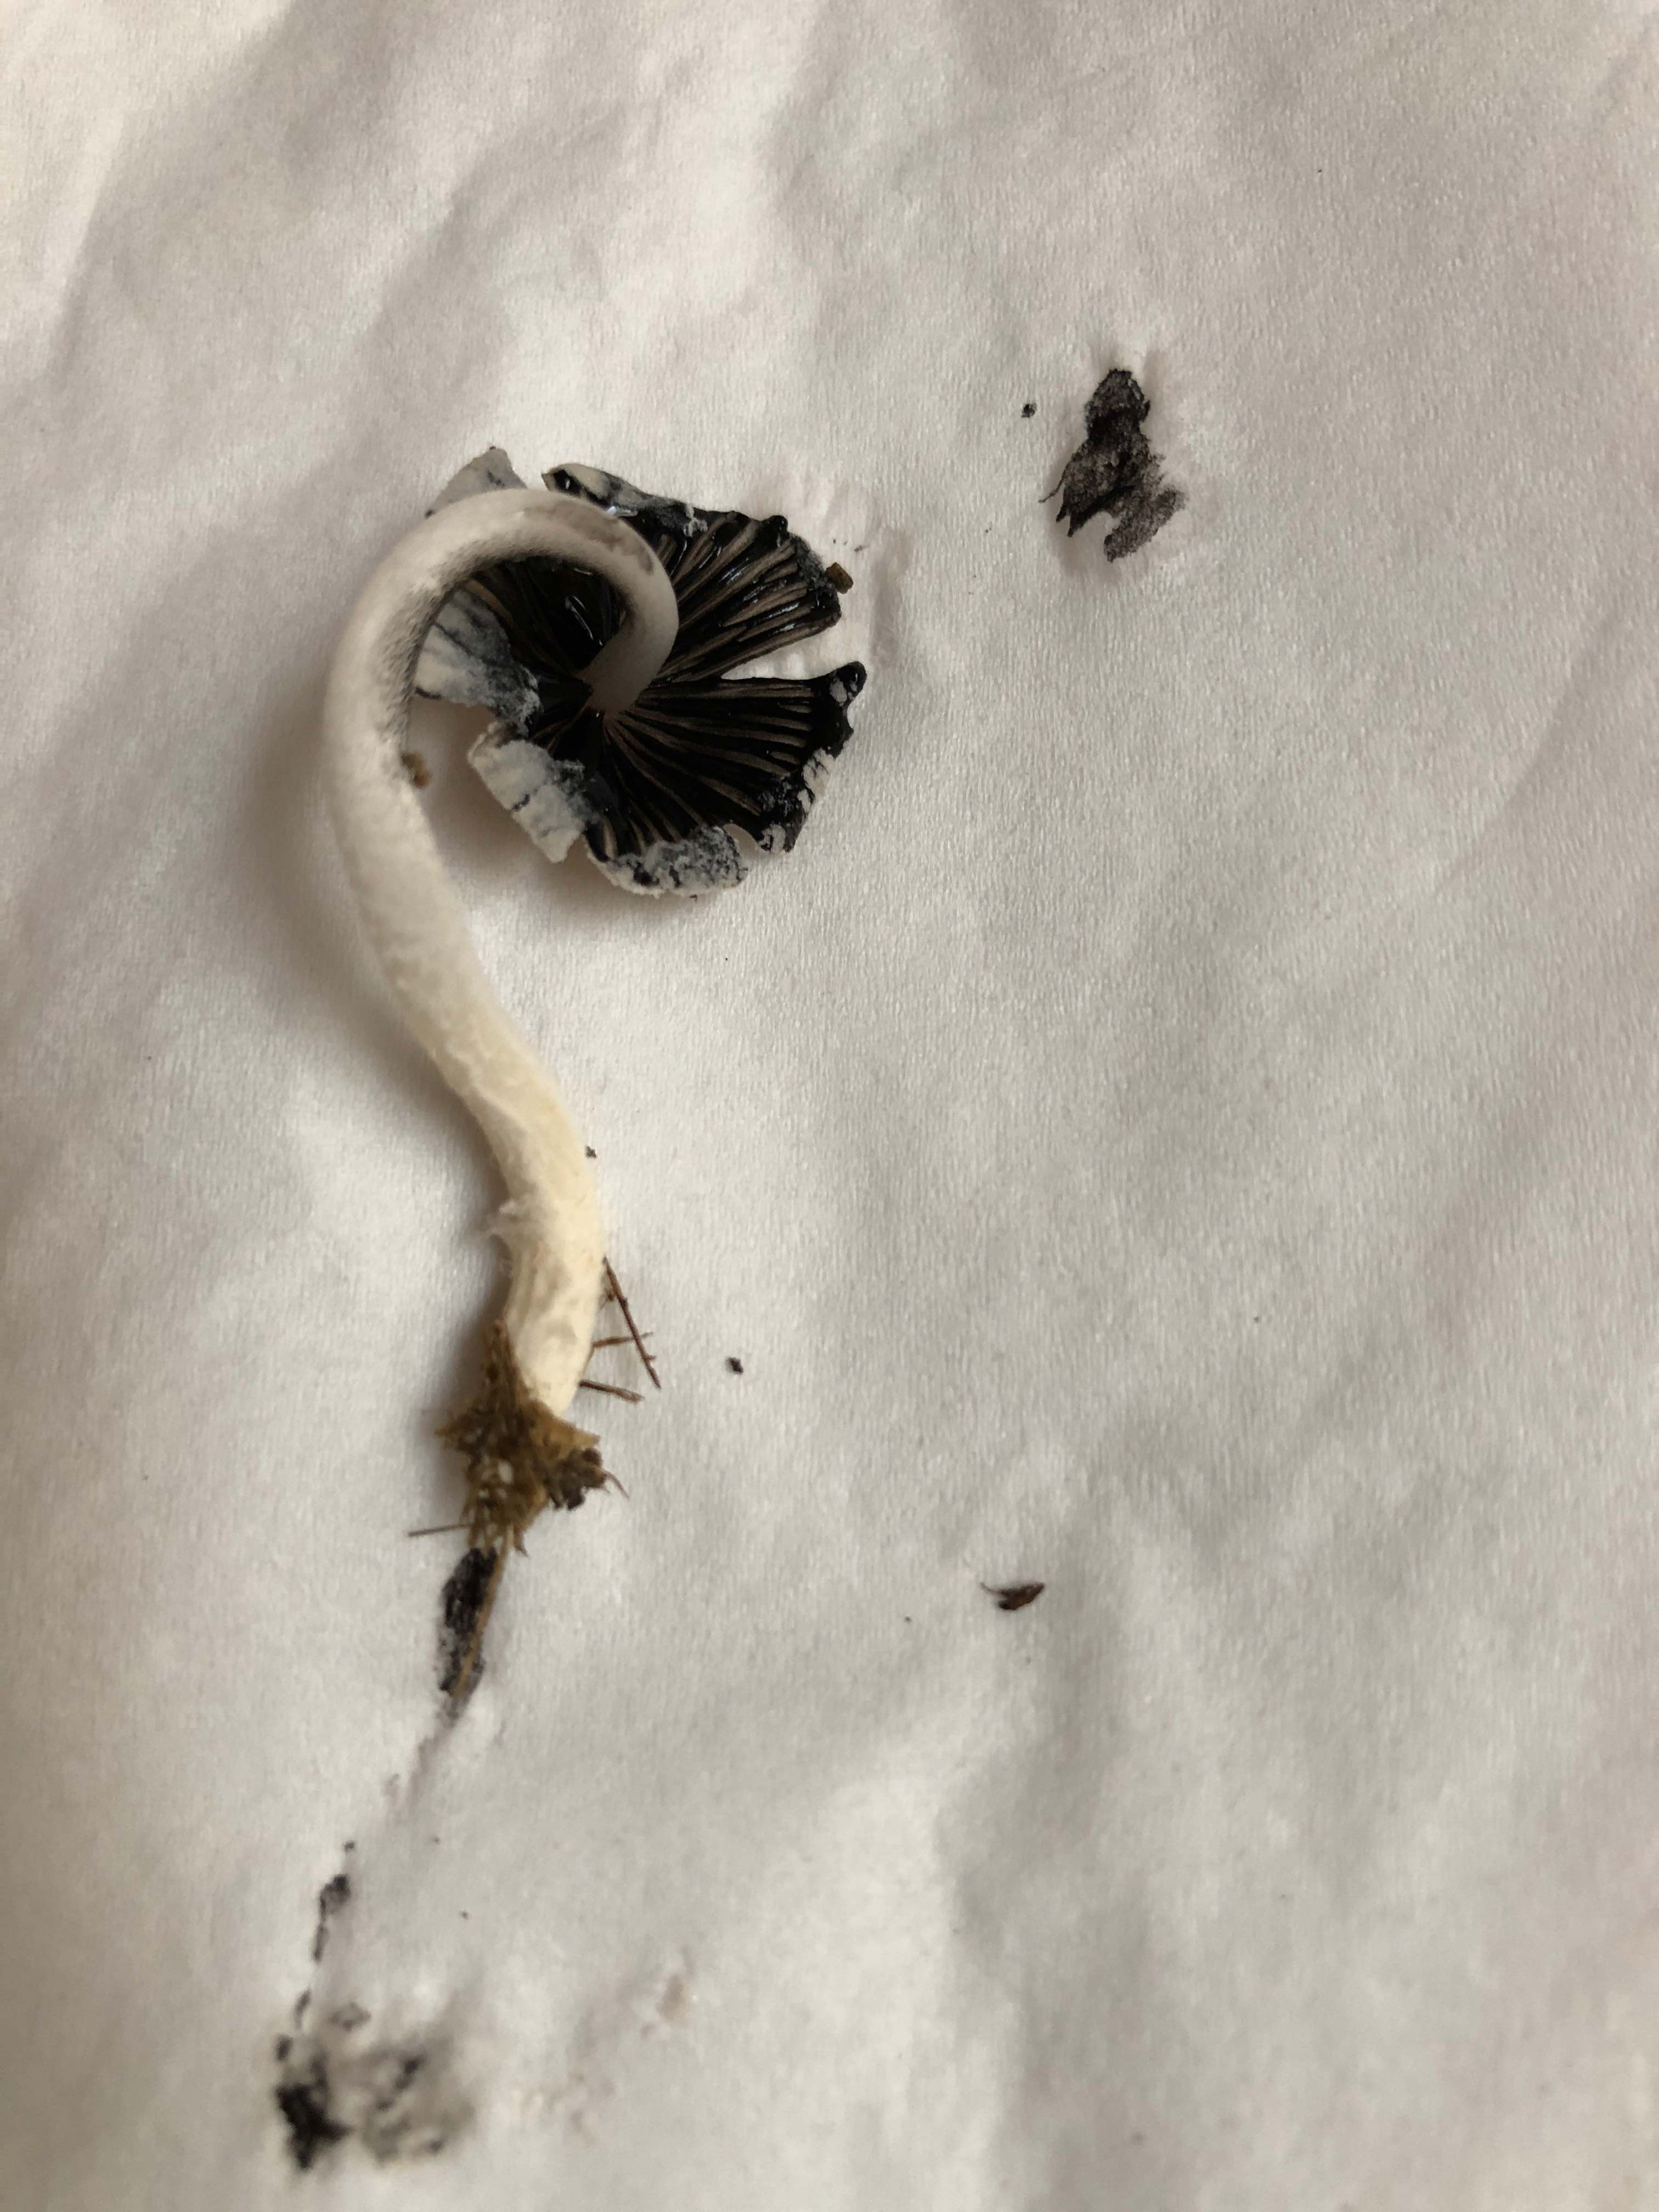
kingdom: Fungi
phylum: Basidiomycota
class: Agaricomycetes
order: Agaricales
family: Psathyrellaceae
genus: Coprinopsis
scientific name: Coprinopsis
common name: blækhat
